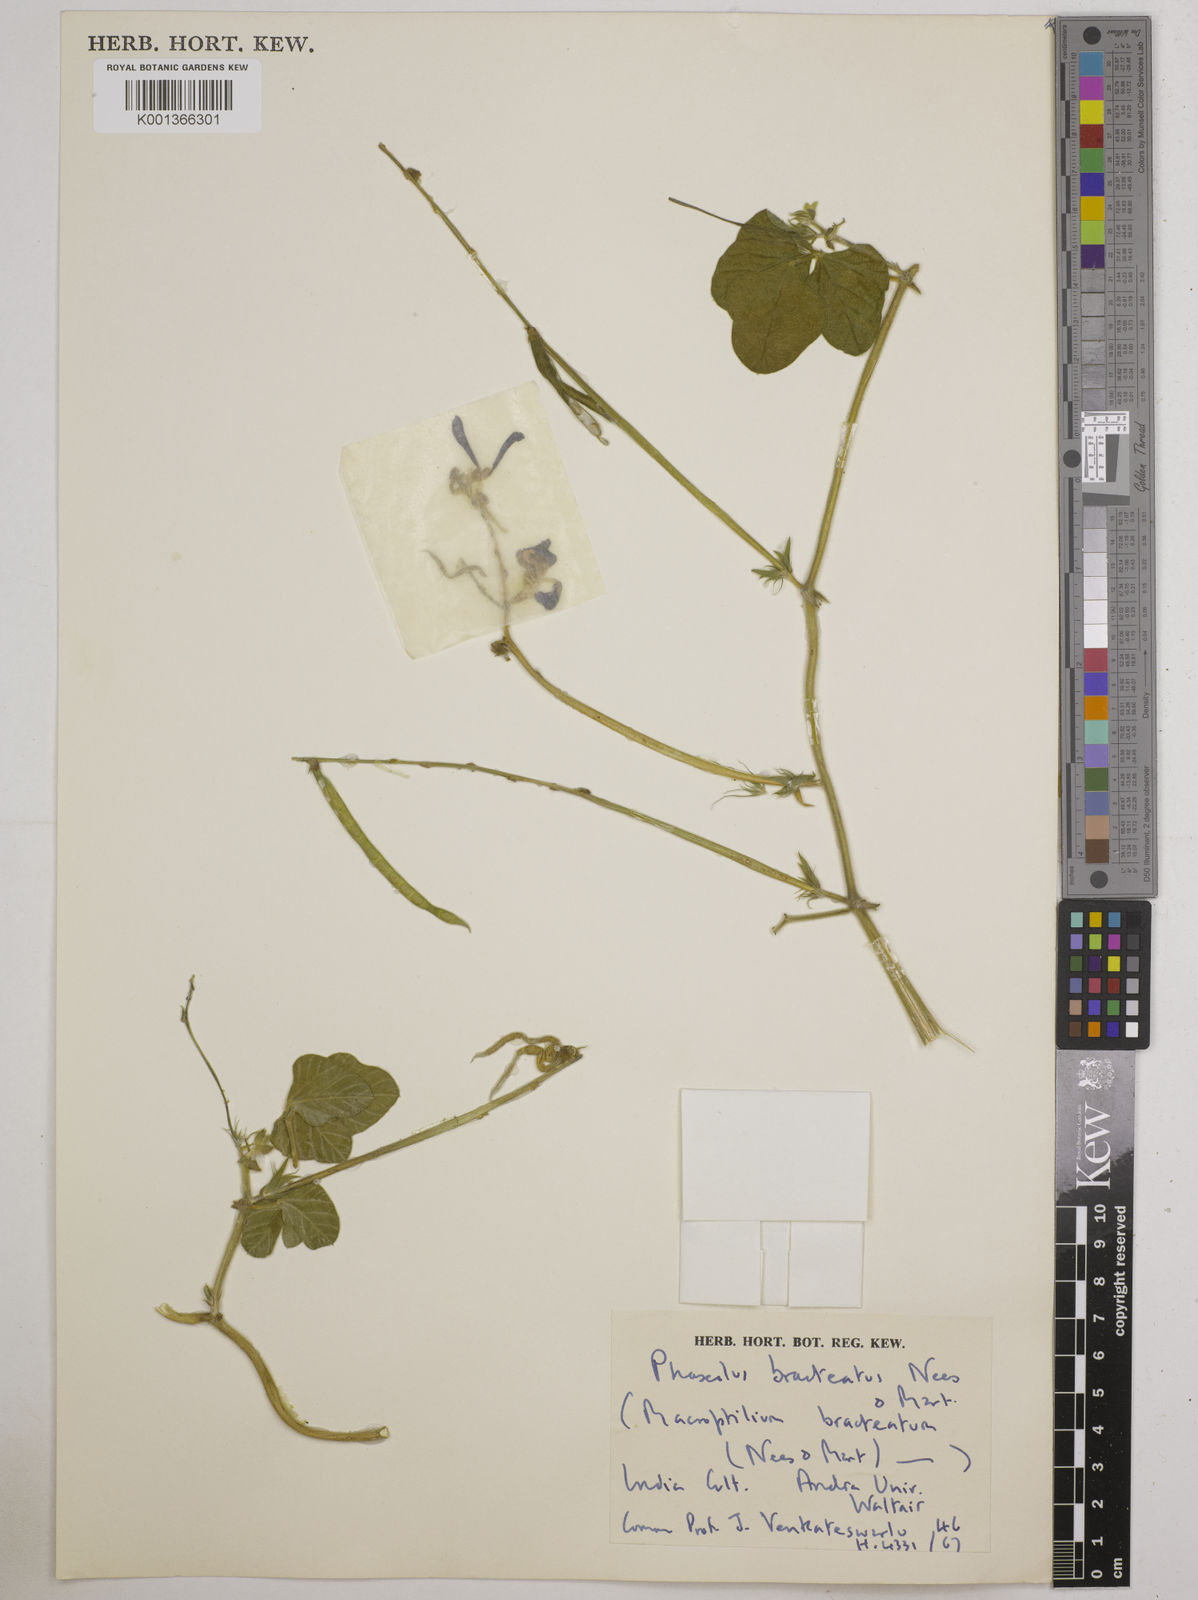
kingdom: Plantae
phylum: Tracheophyta
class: Magnoliopsida
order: Fabales
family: Fabaceae
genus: Macroptilium
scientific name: Macroptilium bracteatum
